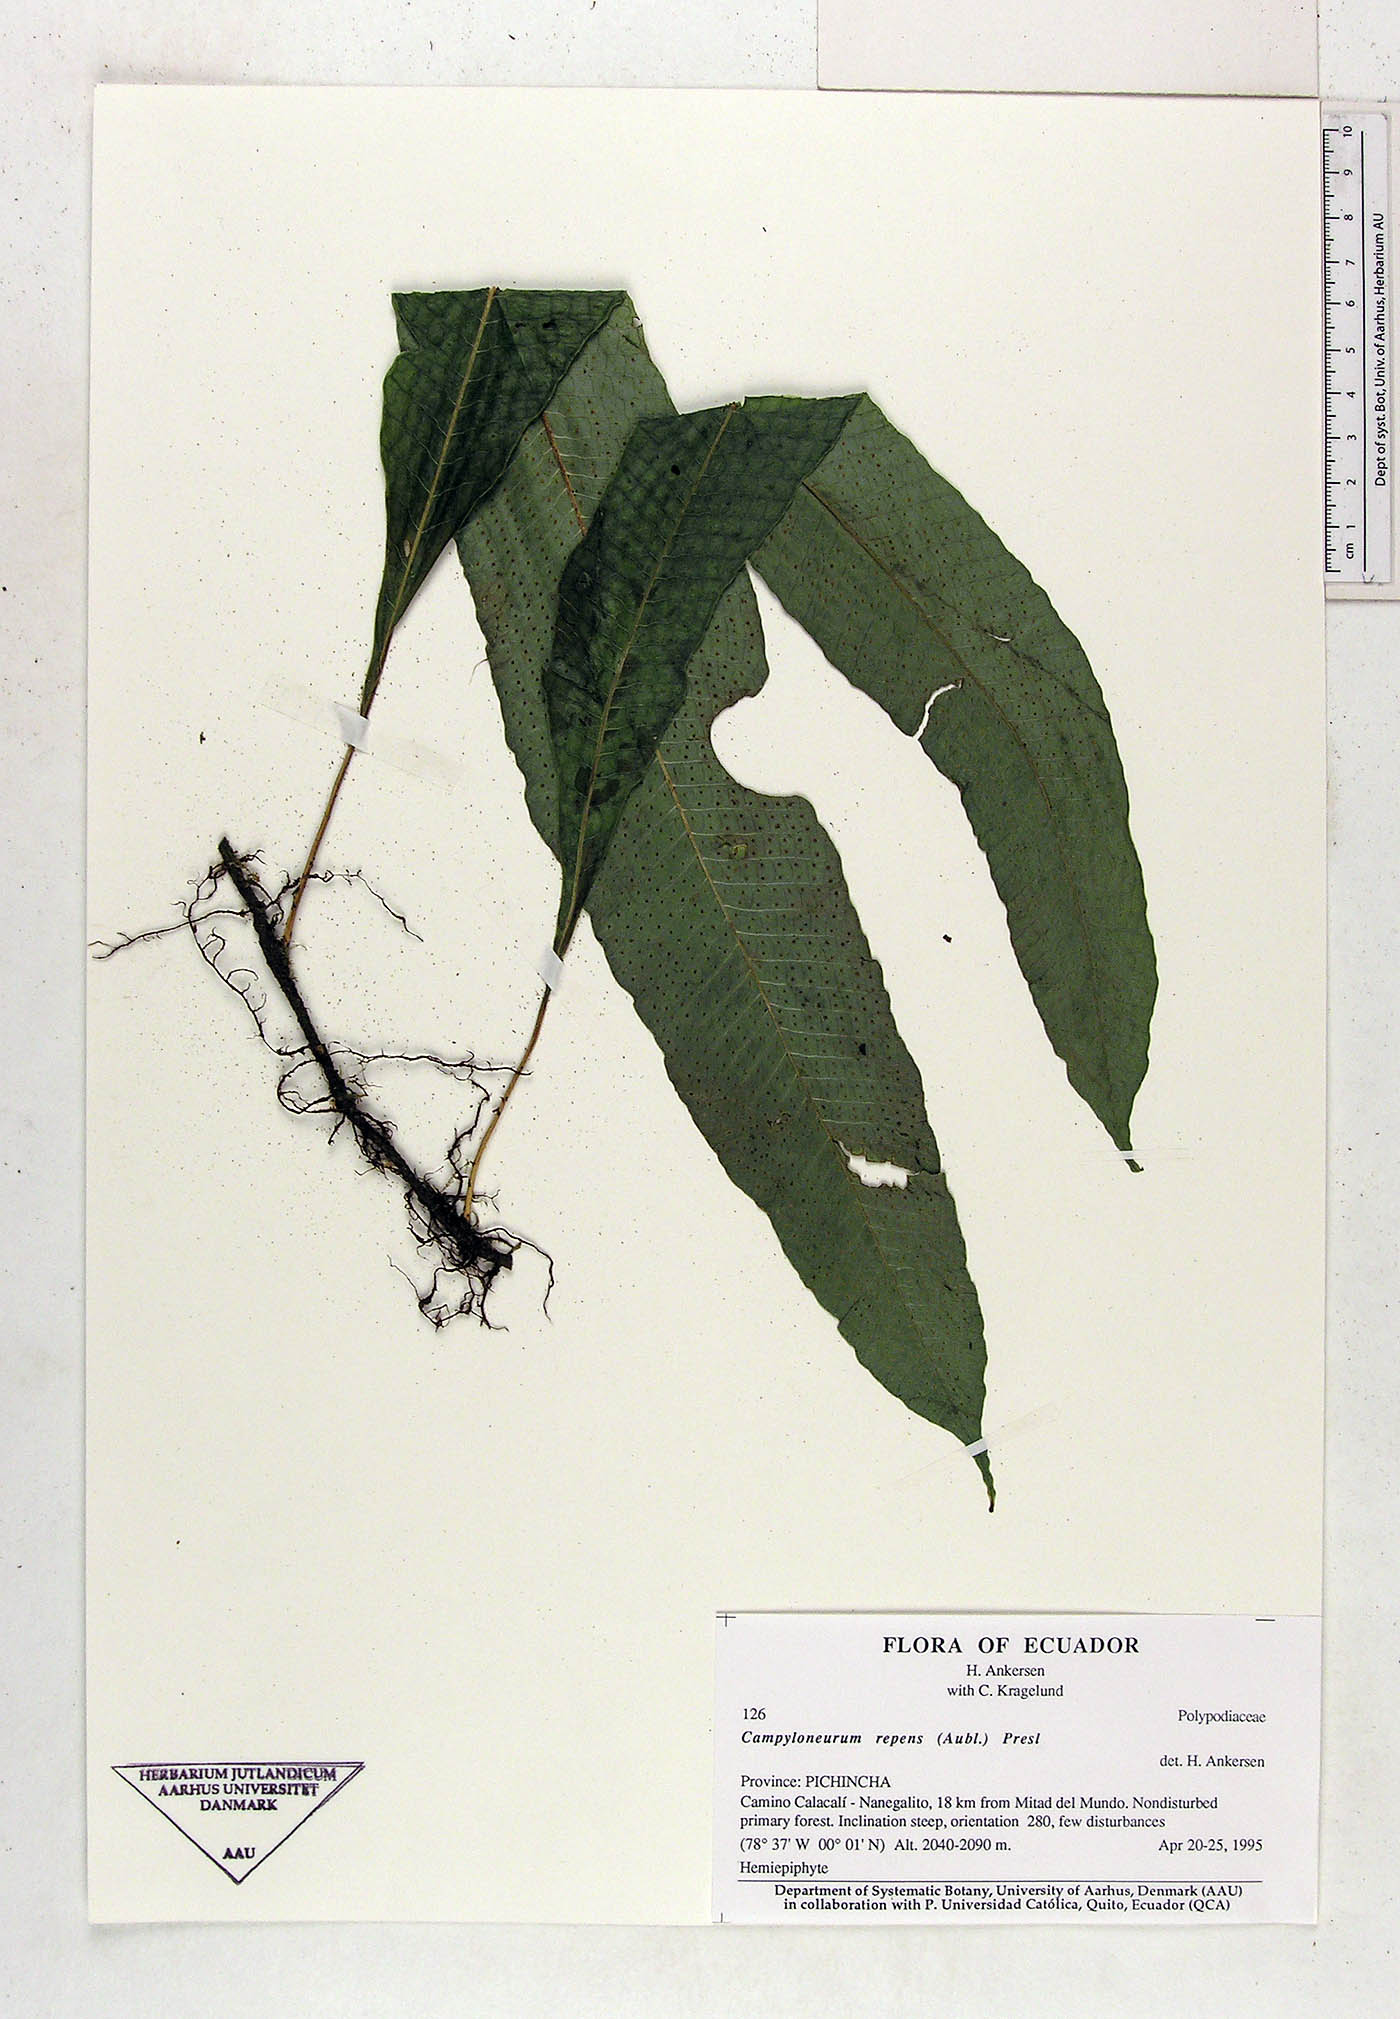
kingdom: Plantae
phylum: Tracheophyta
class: Polypodiopsida
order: Polypodiales
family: Polypodiaceae
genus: Campyloneurum
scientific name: Campyloneurum repens
